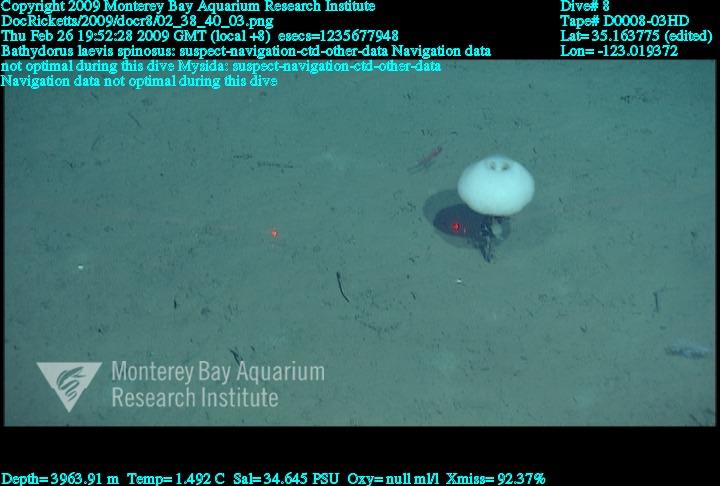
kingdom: Animalia
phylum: Porifera
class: Hexactinellida
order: Lyssacinosida
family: Rossellidae
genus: Bathydorus
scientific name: Bathydorus spinosus
